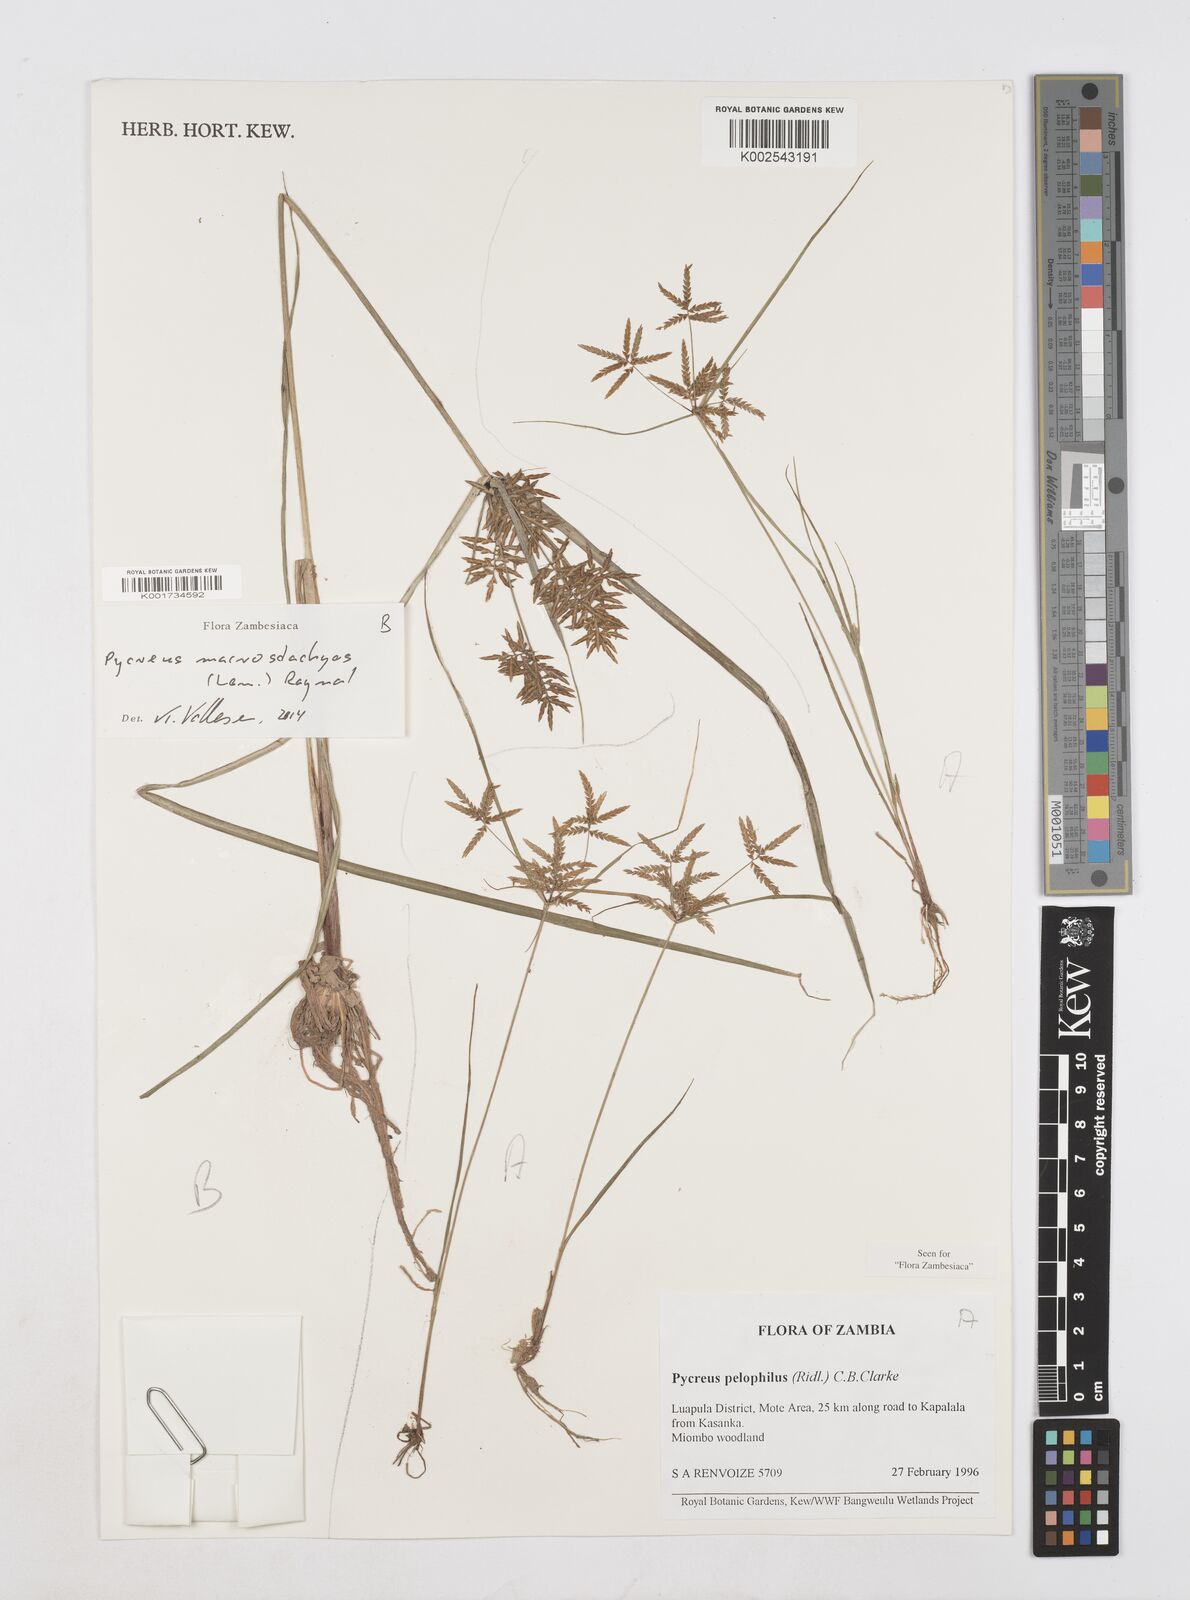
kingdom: Plantae
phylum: Tracheophyta
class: Liliopsida
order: Poales
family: Cyperaceae
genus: Cyperus
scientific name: Cyperus macrostachyos
